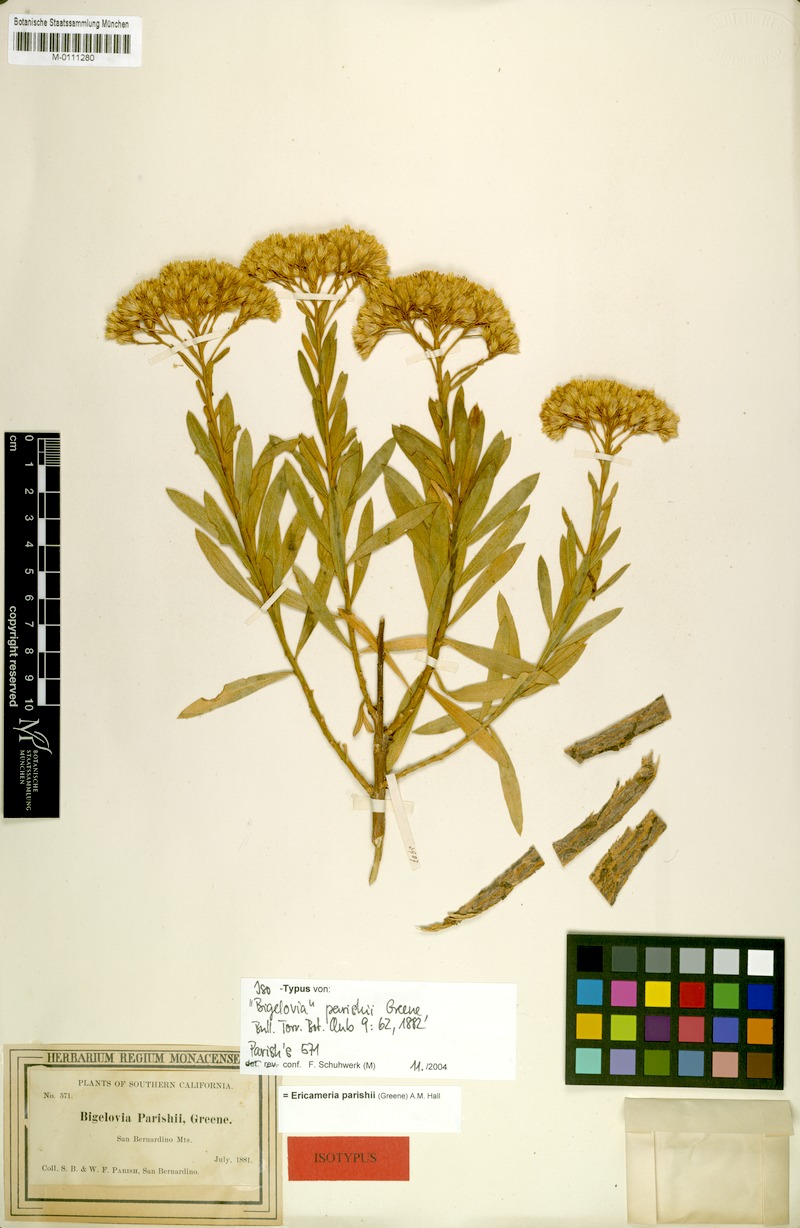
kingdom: Plantae
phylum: Tracheophyta
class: Magnoliopsida
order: Asterales
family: Asteraceae
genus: Ericameria
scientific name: Ericameria parishii
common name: Parish's goldenbush
